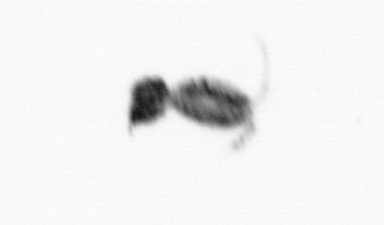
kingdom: Animalia
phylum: Arthropoda
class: Copepoda
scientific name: Copepoda
